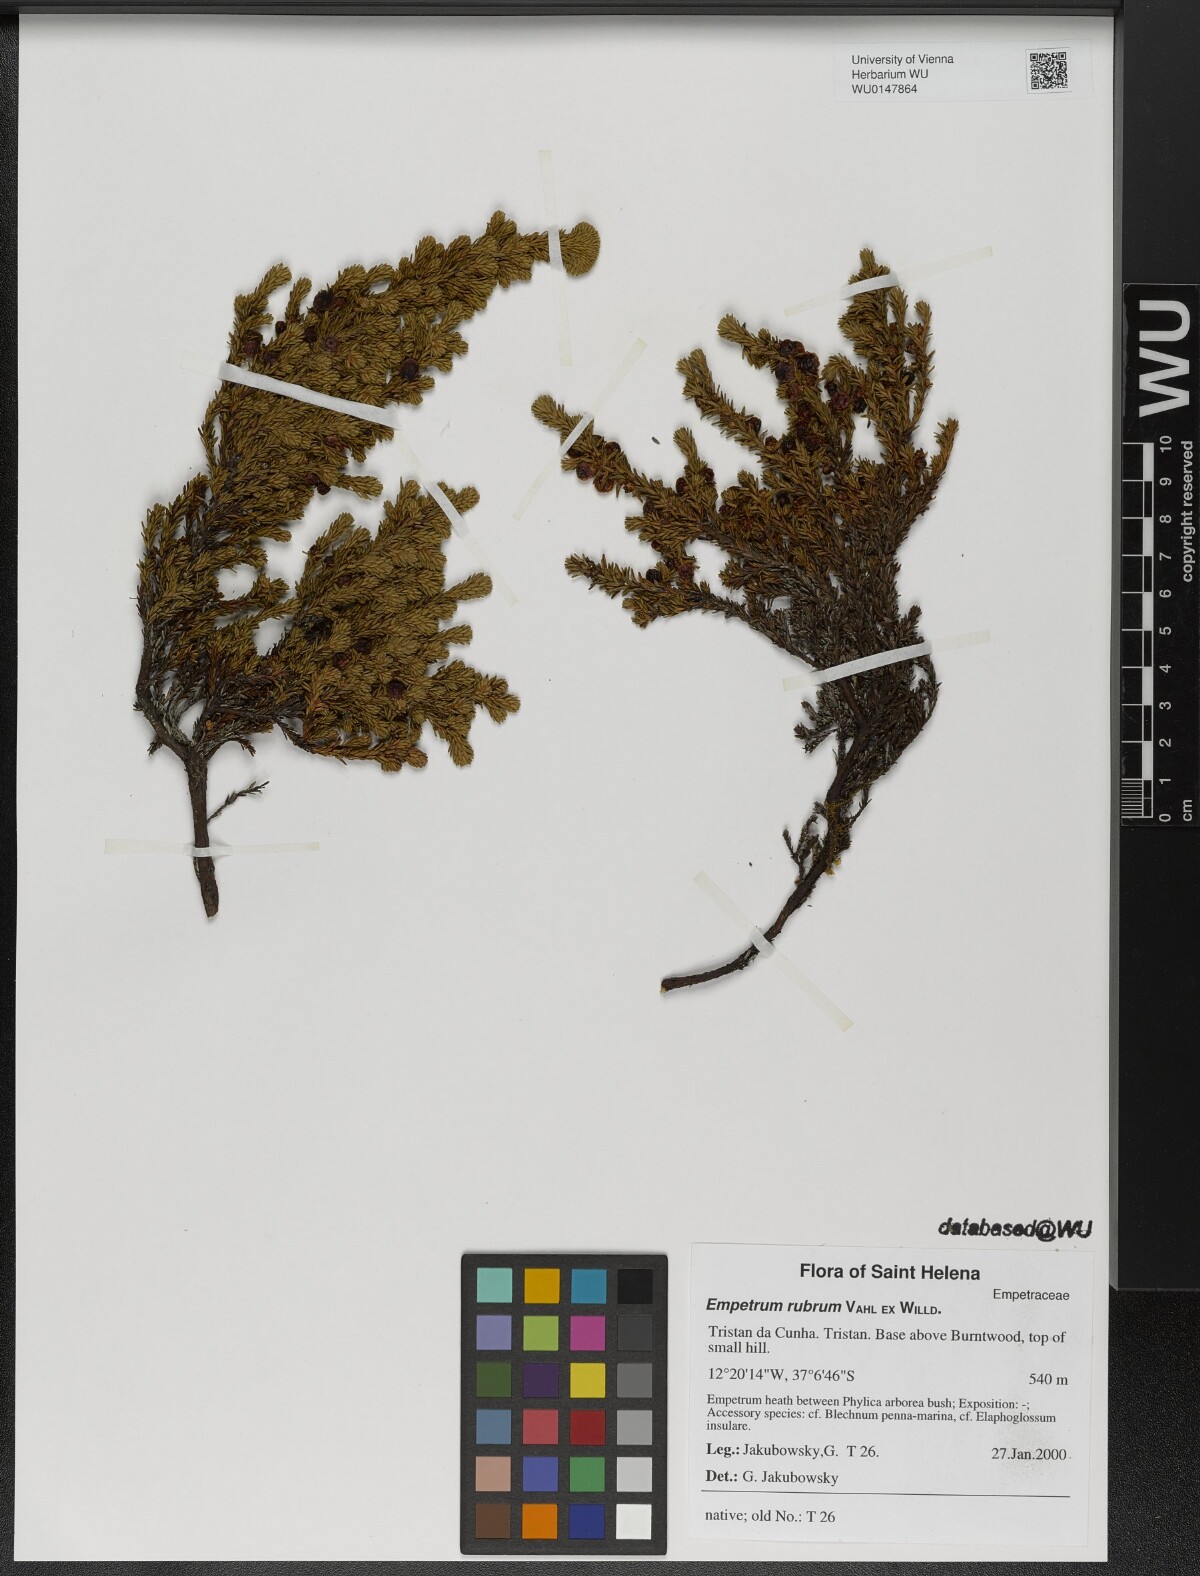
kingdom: Plantae
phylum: Tracheophyta
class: Magnoliopsida
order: Ericales
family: Ericaceae
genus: Empetrum
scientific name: Empetrum rubrum
